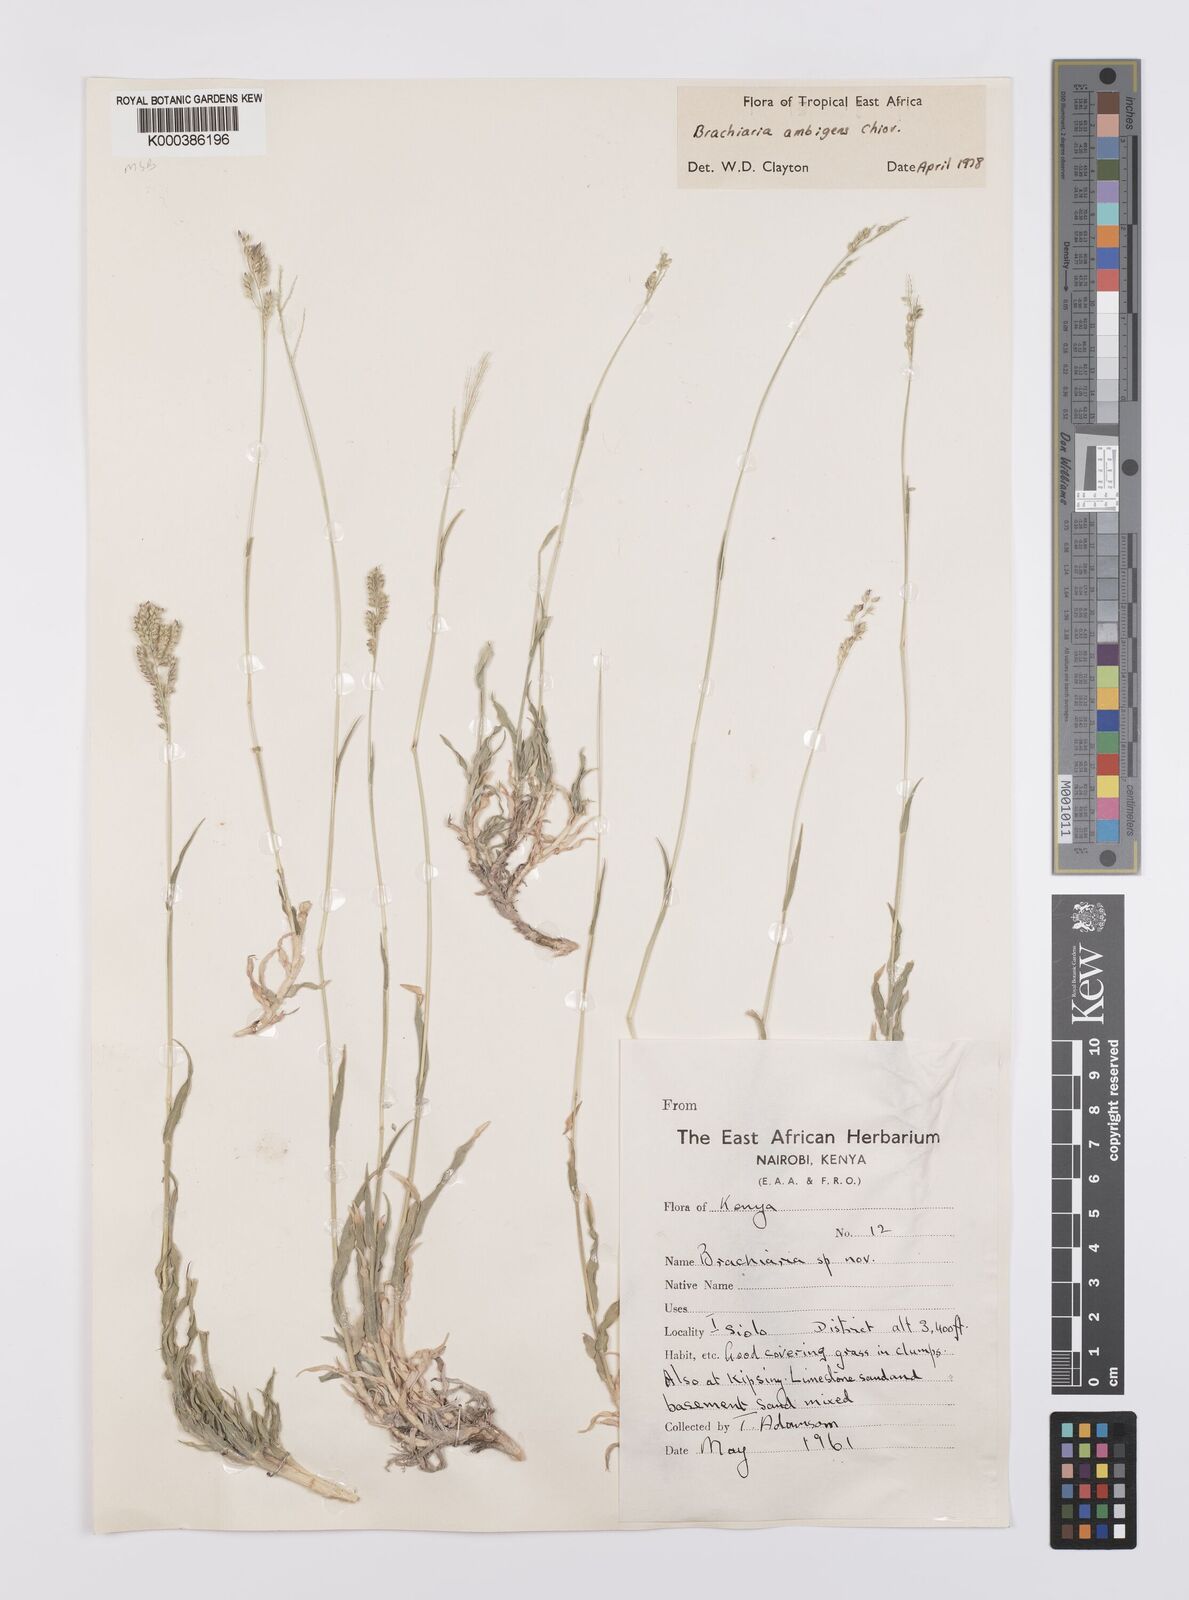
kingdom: Plantae
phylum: Tracheophyta
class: Liliopsida
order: Poales
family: Poaceae
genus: Urochloa
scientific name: Urochloa Brachiaria ambigens
